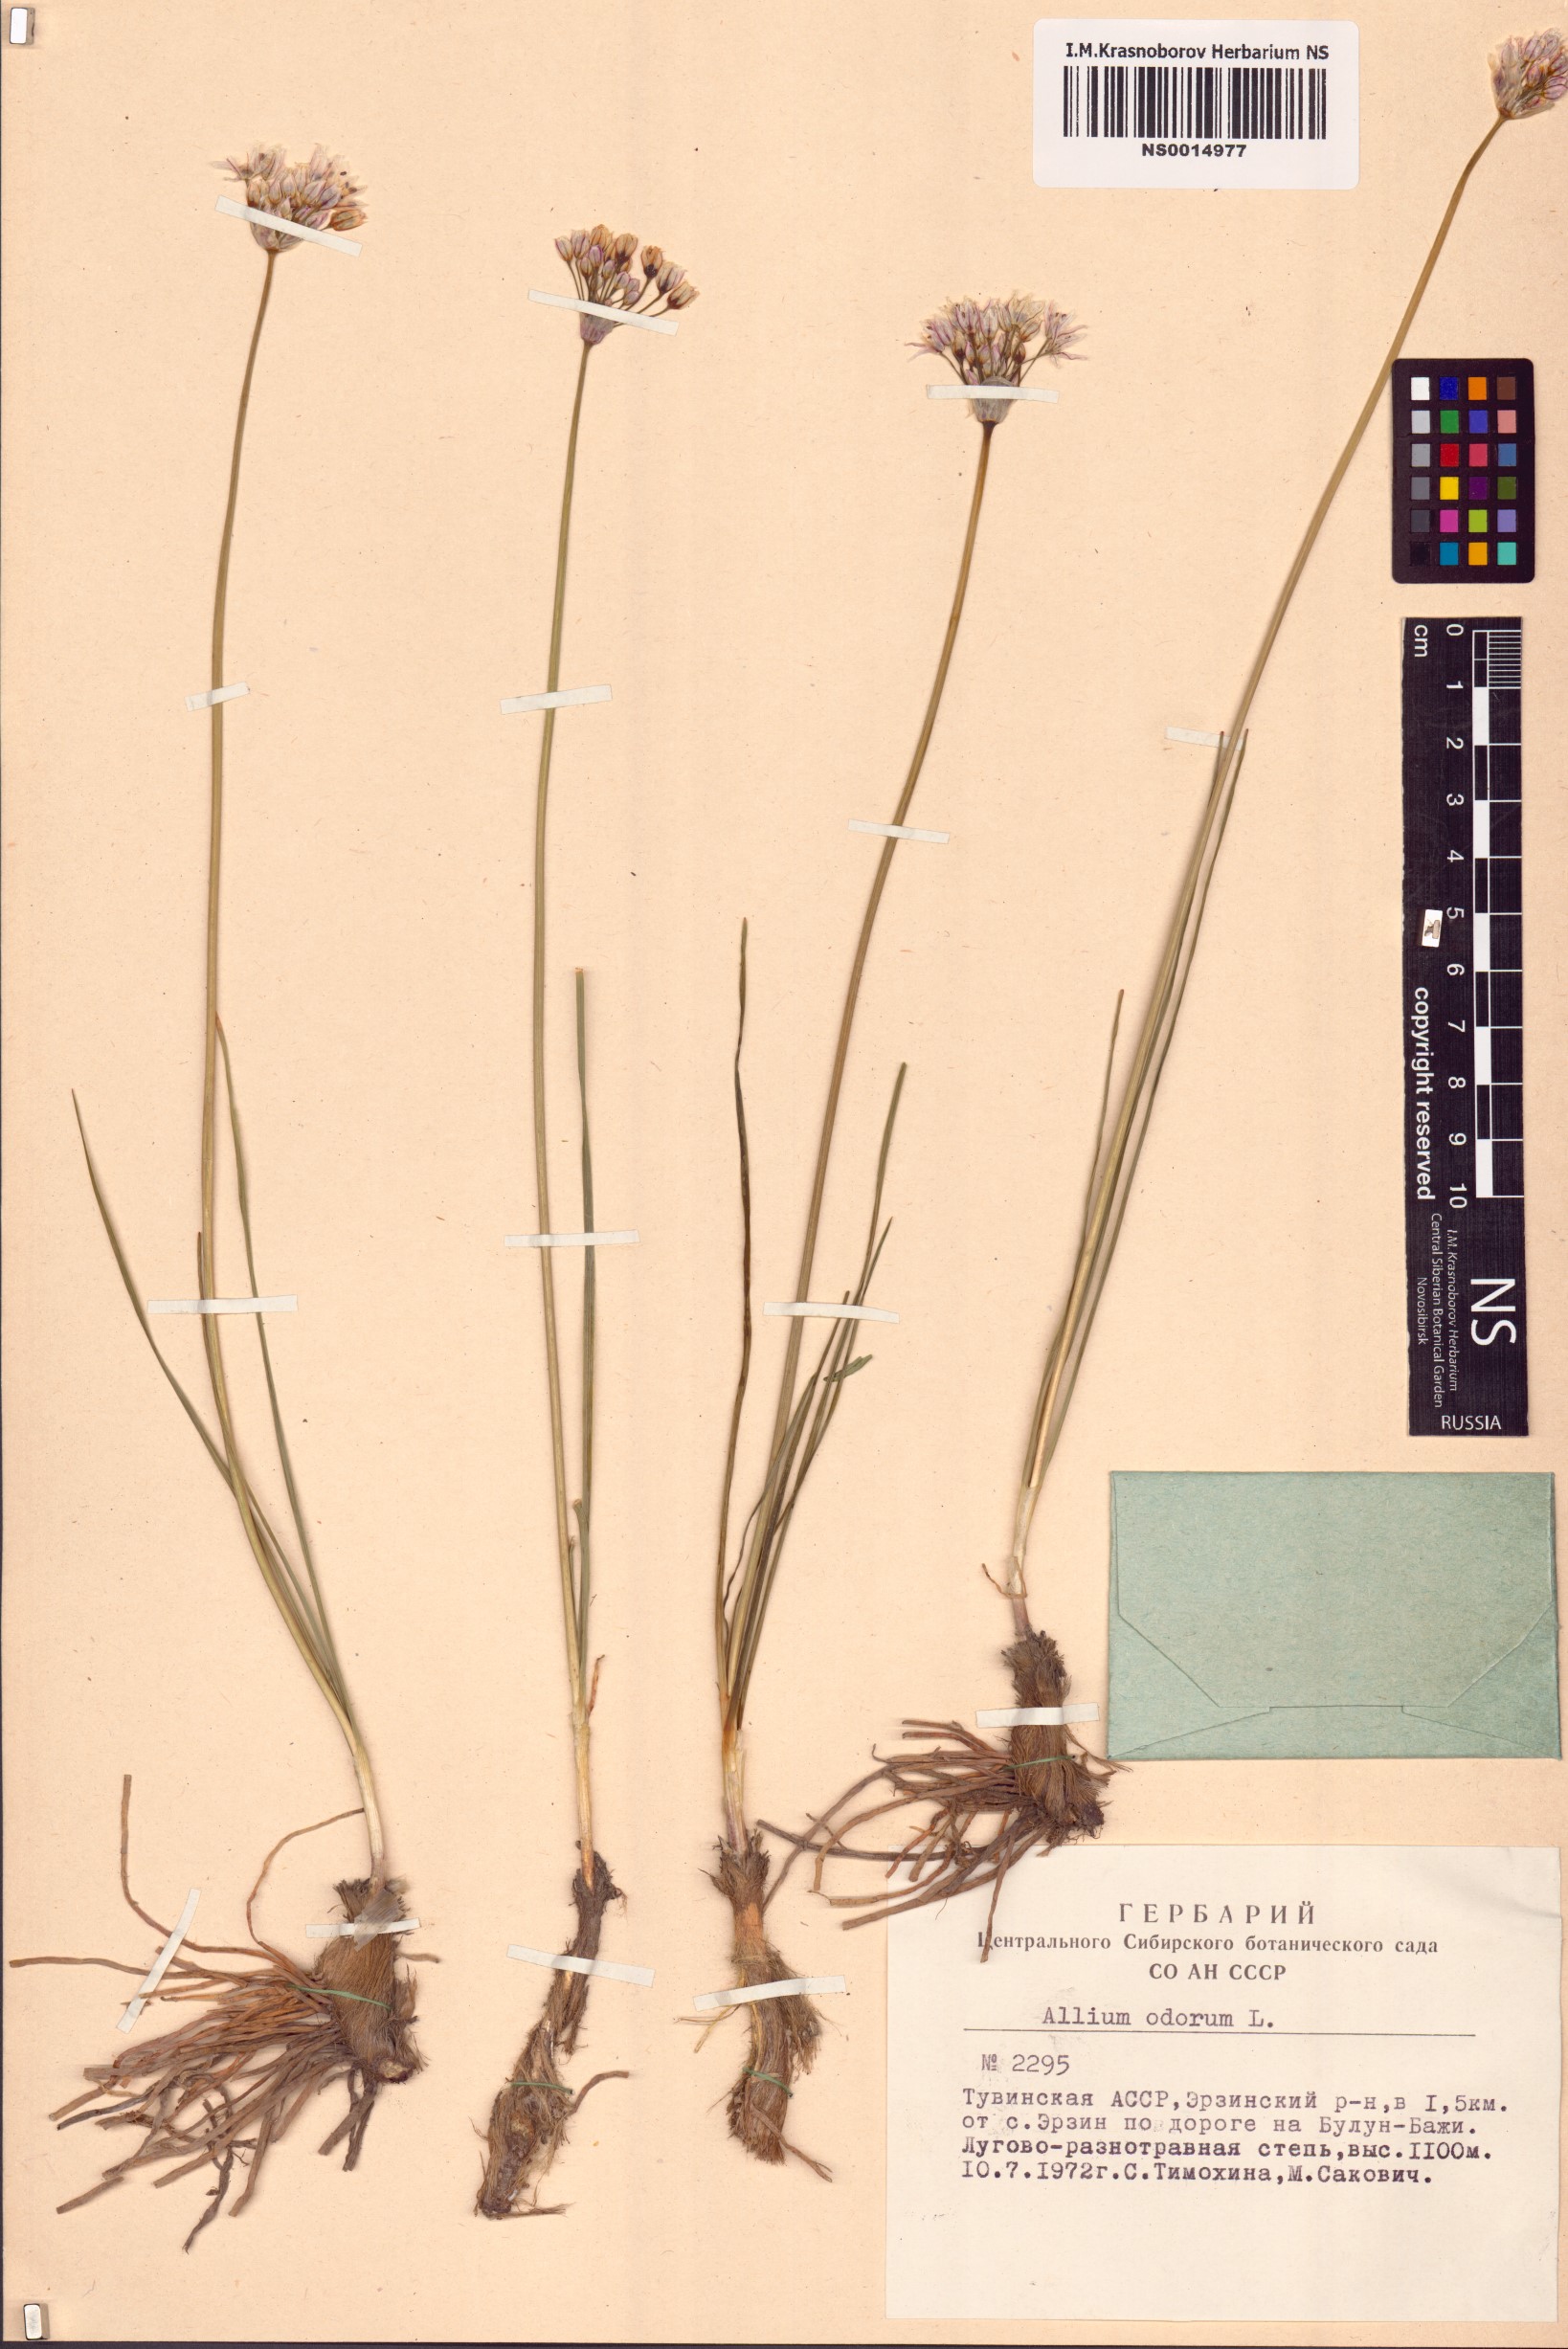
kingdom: Plantae
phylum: Tracheophyta
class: Liliopsida
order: Asparagales
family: Amaryllidaceae
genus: Allium
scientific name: Allium ramosum
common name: Fragrant garlic
